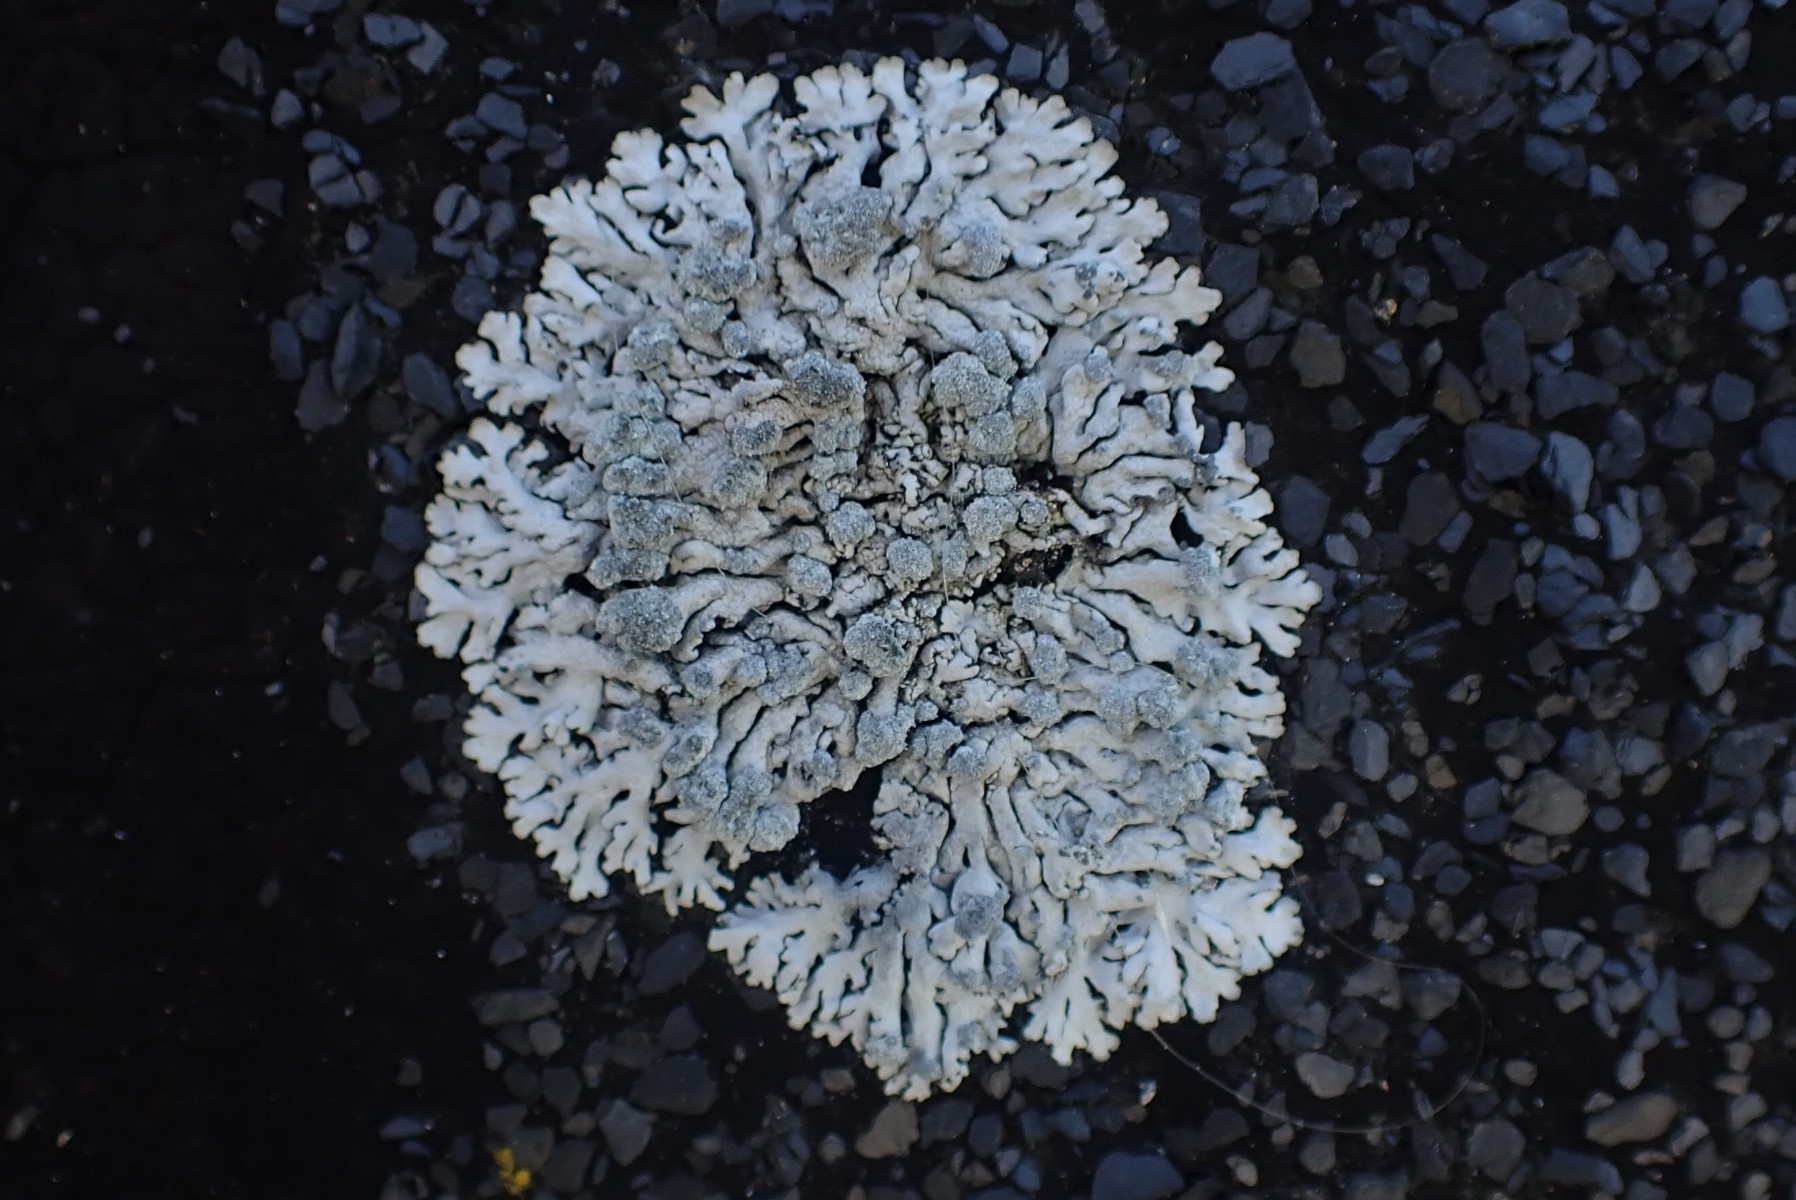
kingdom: Fungi
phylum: Ascomycota
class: Lecanoromycetes
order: Caliciales
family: Physciaceae
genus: Physcia
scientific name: Physcia caesia
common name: blågrå rosetlav
